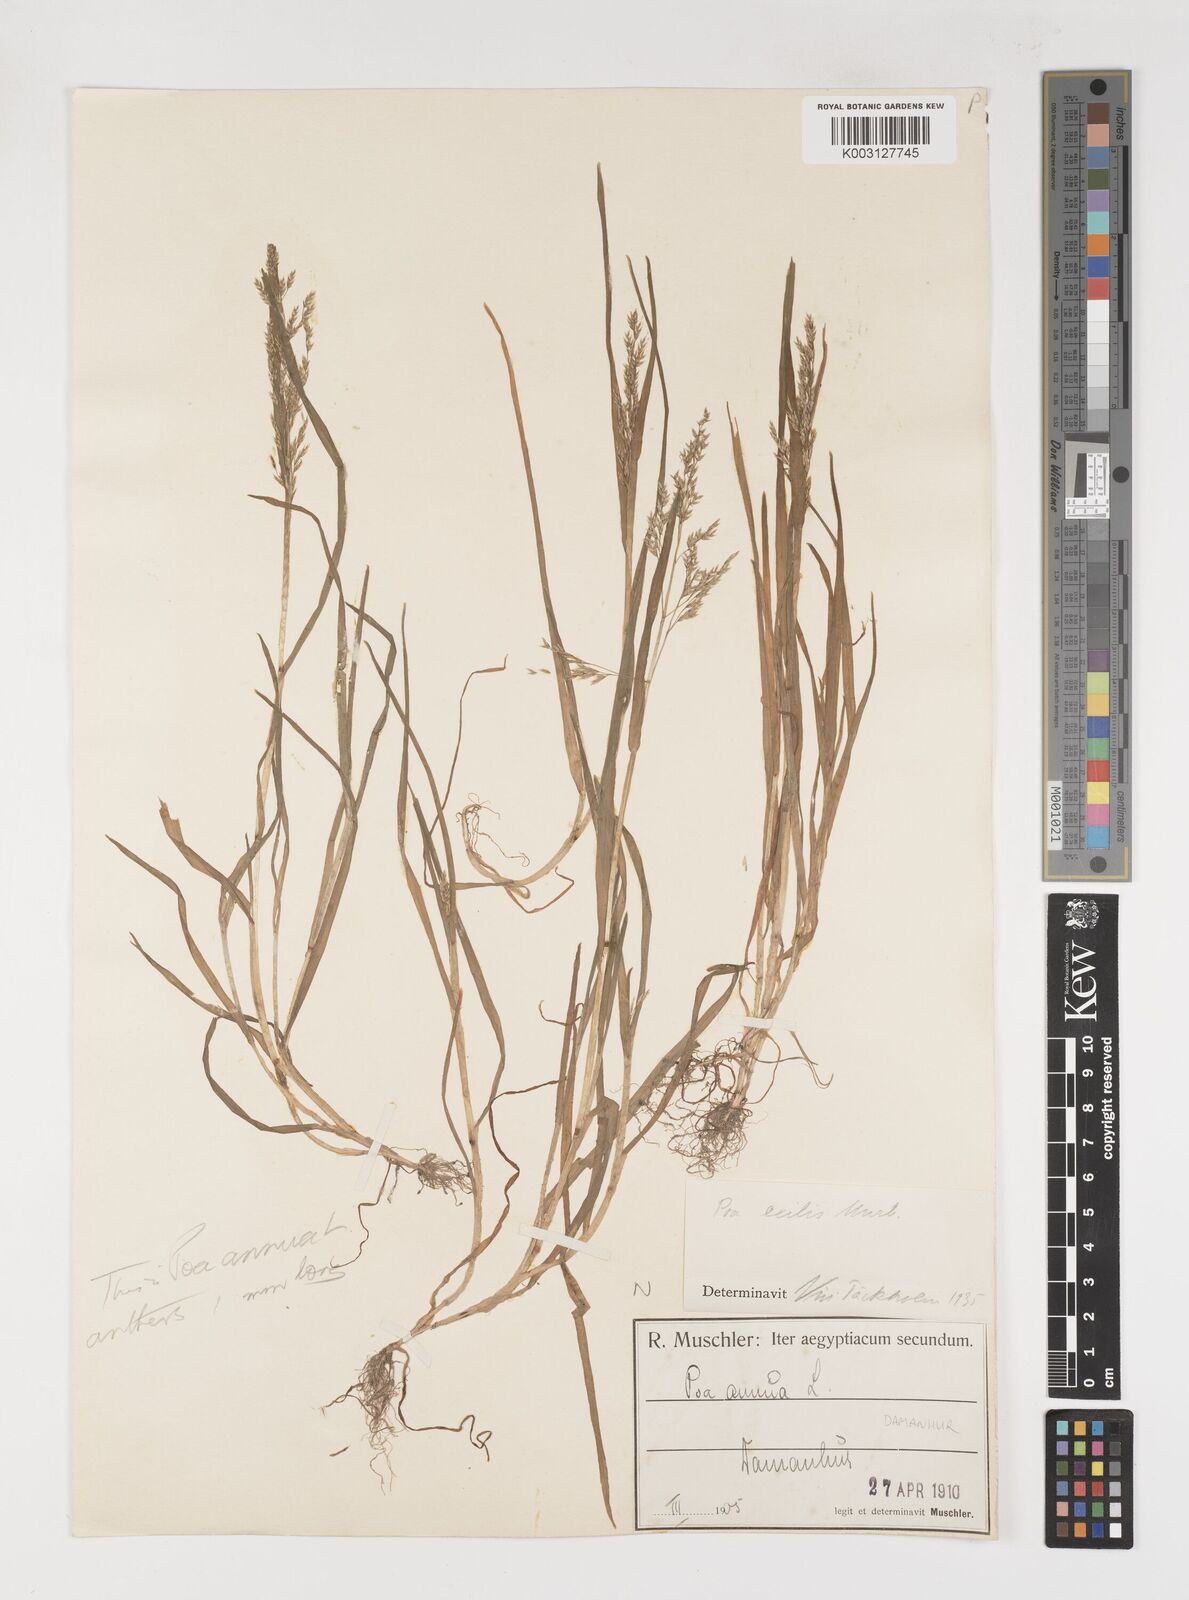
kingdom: Plantae
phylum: Tracheophyta
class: Liliopsida
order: Poales
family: Poaceae
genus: Poa
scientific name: Poa annua
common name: Annual bluegrass
